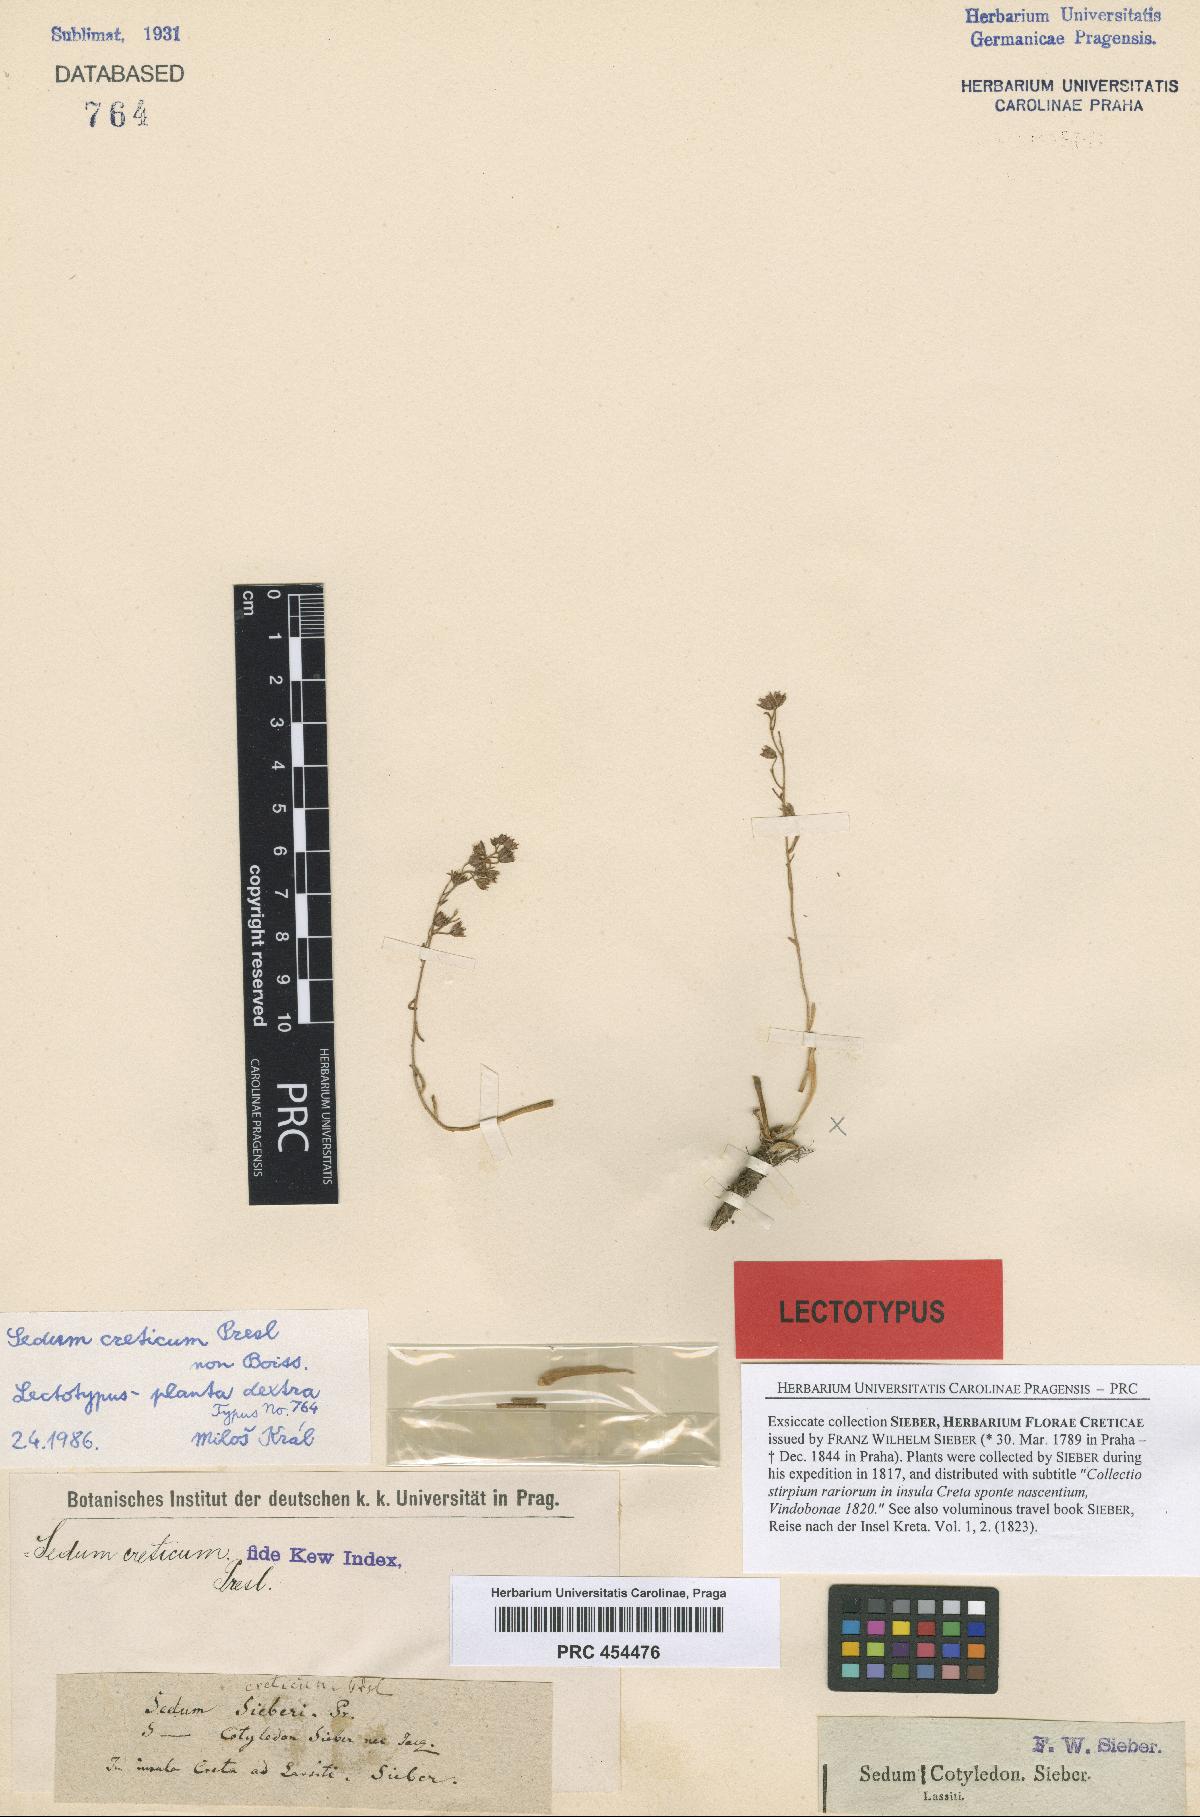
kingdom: Plantae
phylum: Tracheophyta
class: Magnoliopsida
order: Saxifragales
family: Crassulaceae
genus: Sedum
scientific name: Sedum creticum
